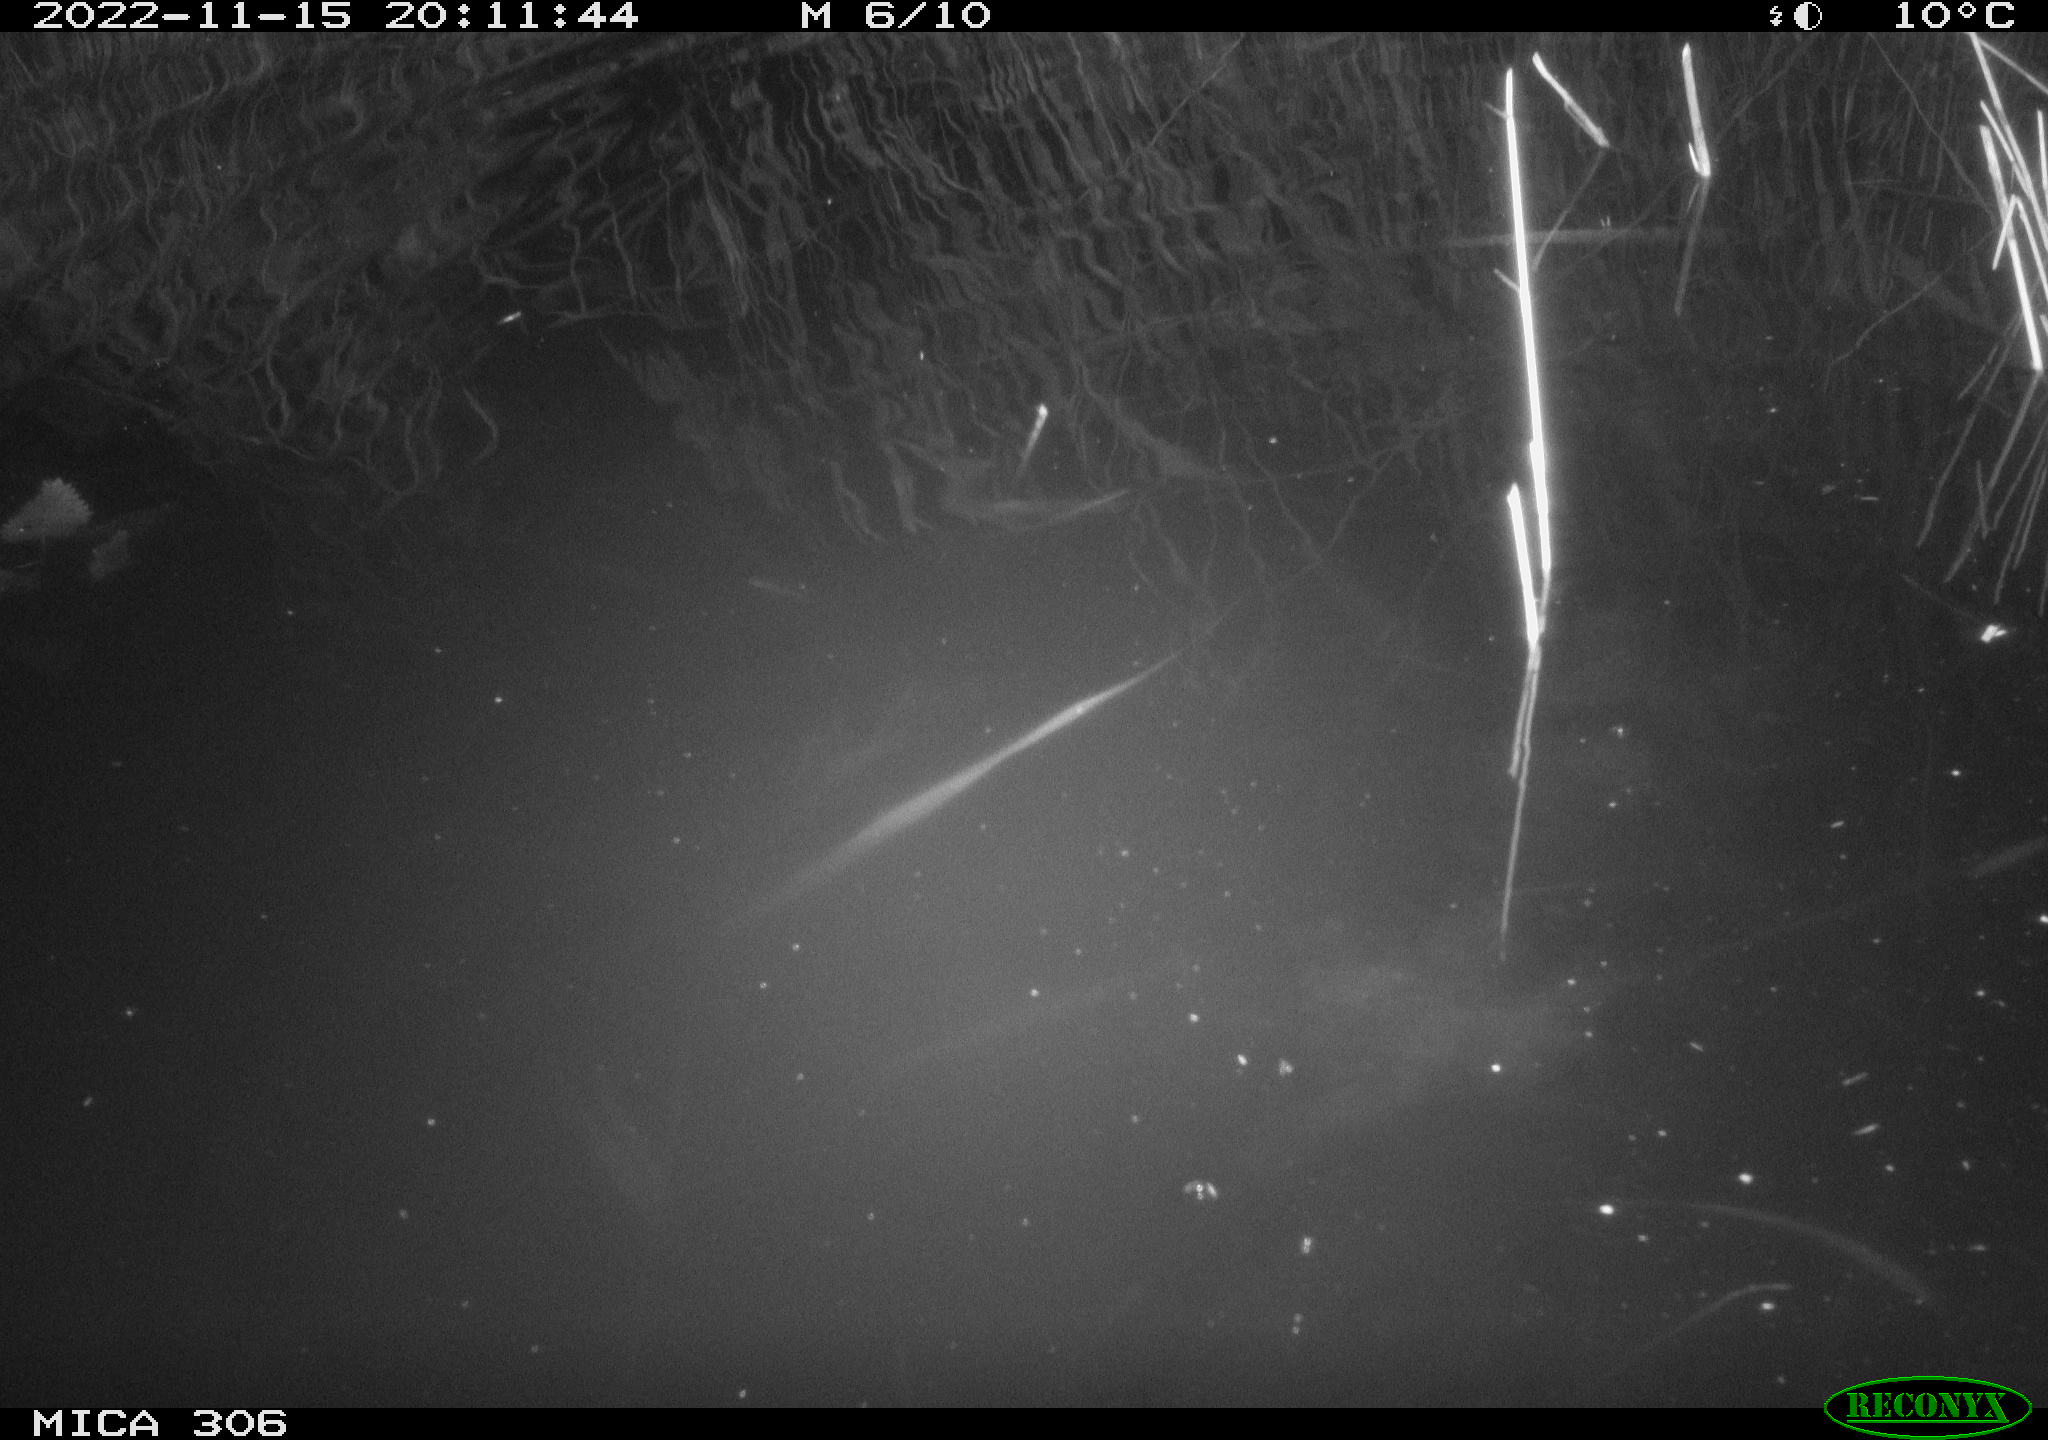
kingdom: Animalia
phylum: Chordata
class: Mammalia
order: Rodentia
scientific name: Rodentia
